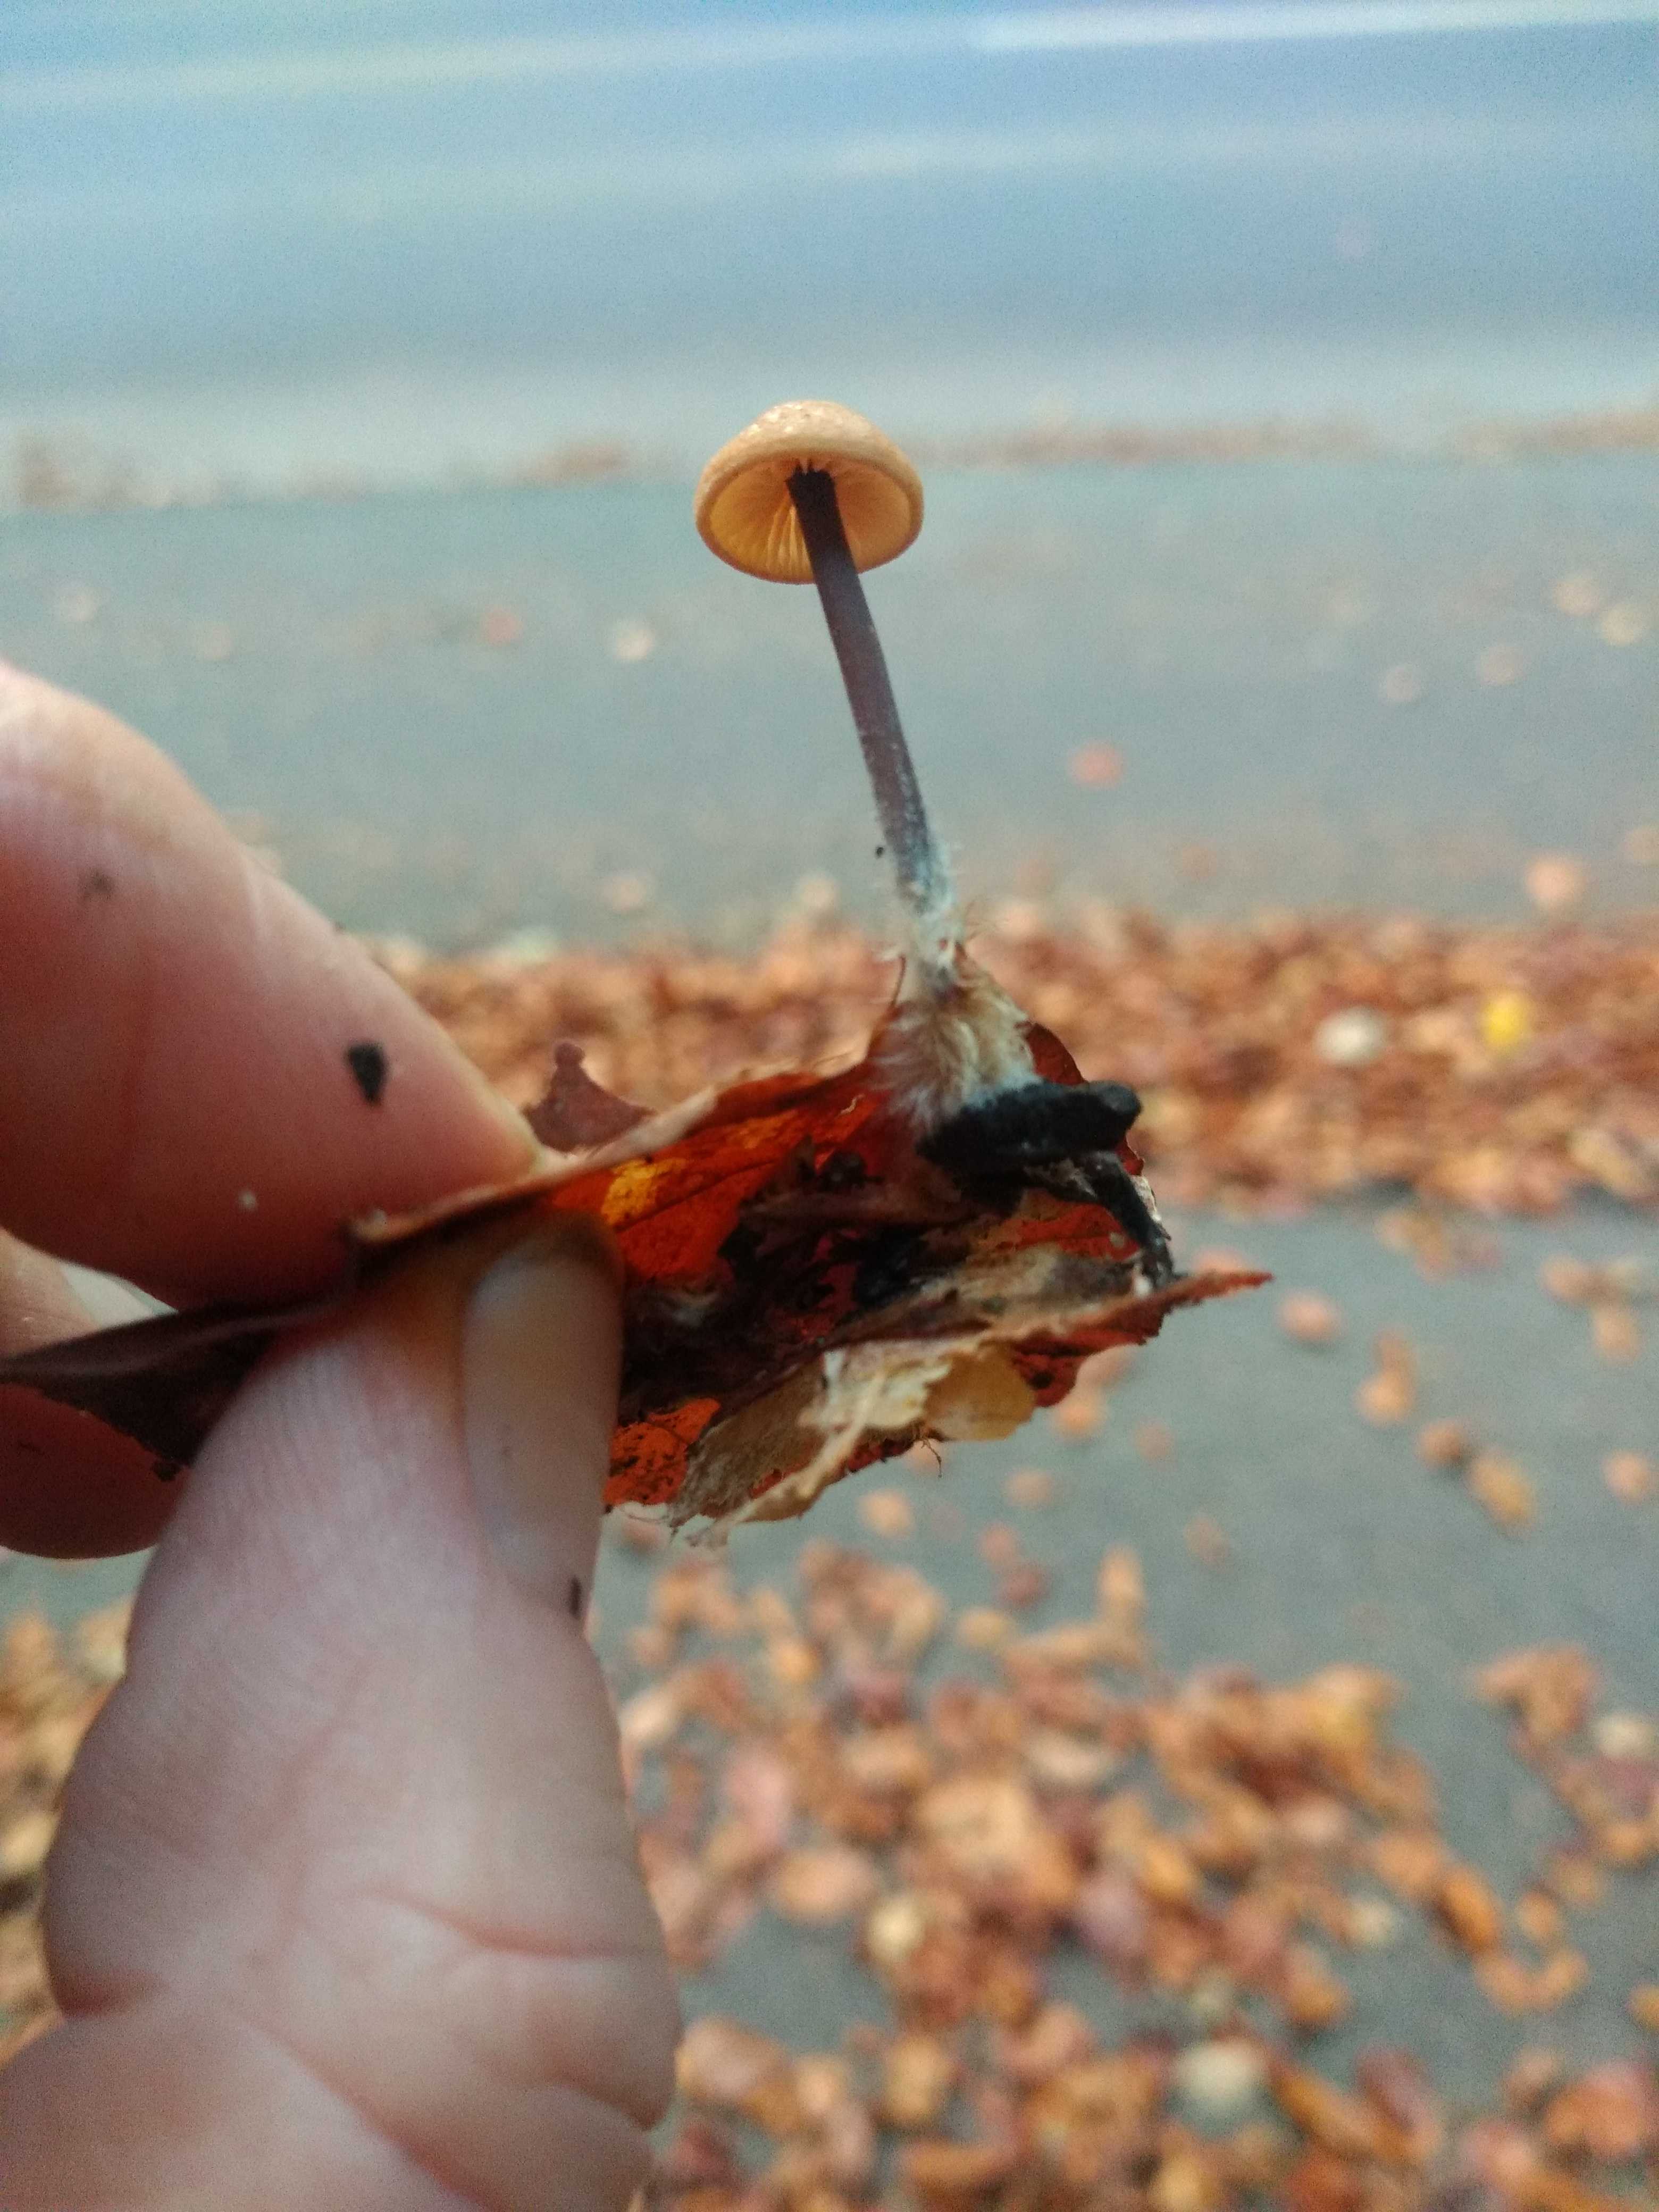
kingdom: Fungi
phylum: Basidiomycota
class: Agaricomycetes
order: Agaricales
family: Omphalotaceae
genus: Gymnopus
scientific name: Gymnopus
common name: fladhat
